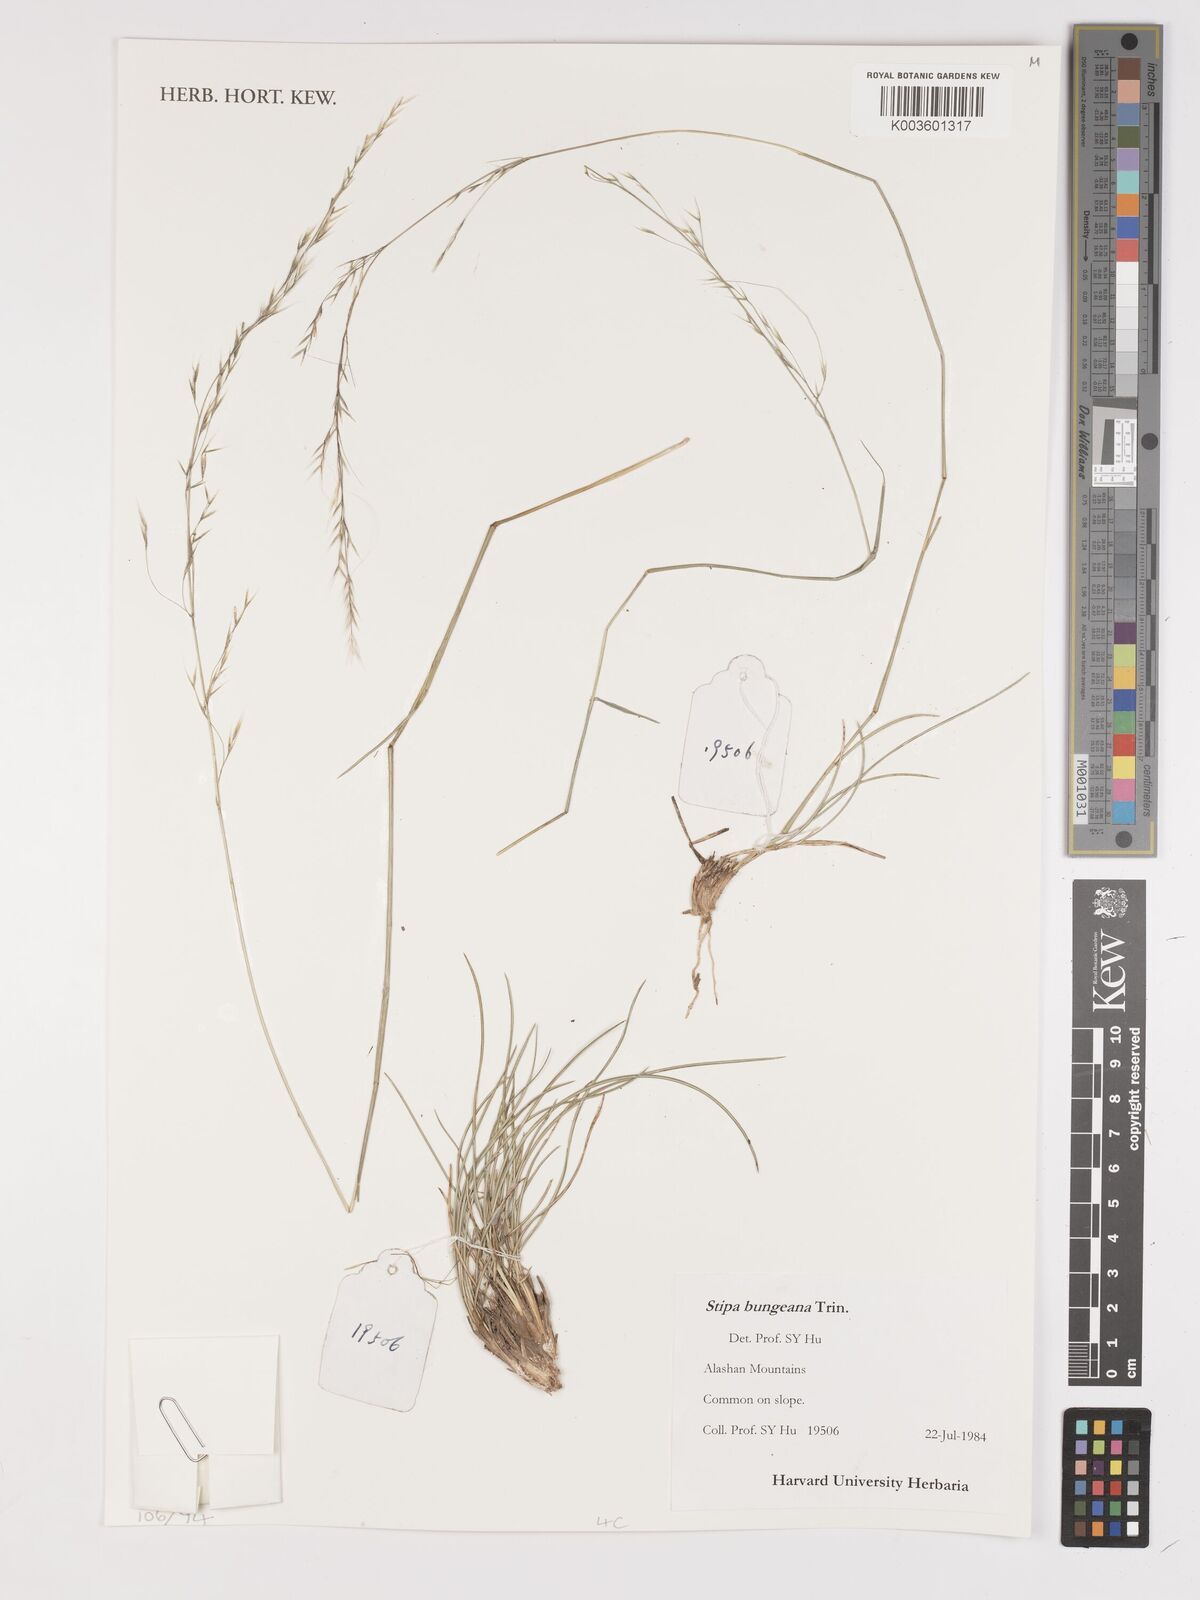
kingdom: Plantae
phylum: Tracheophyta
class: Liliopsida
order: Poales
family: Poaceae
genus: Stipa
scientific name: Stipa bungeana
